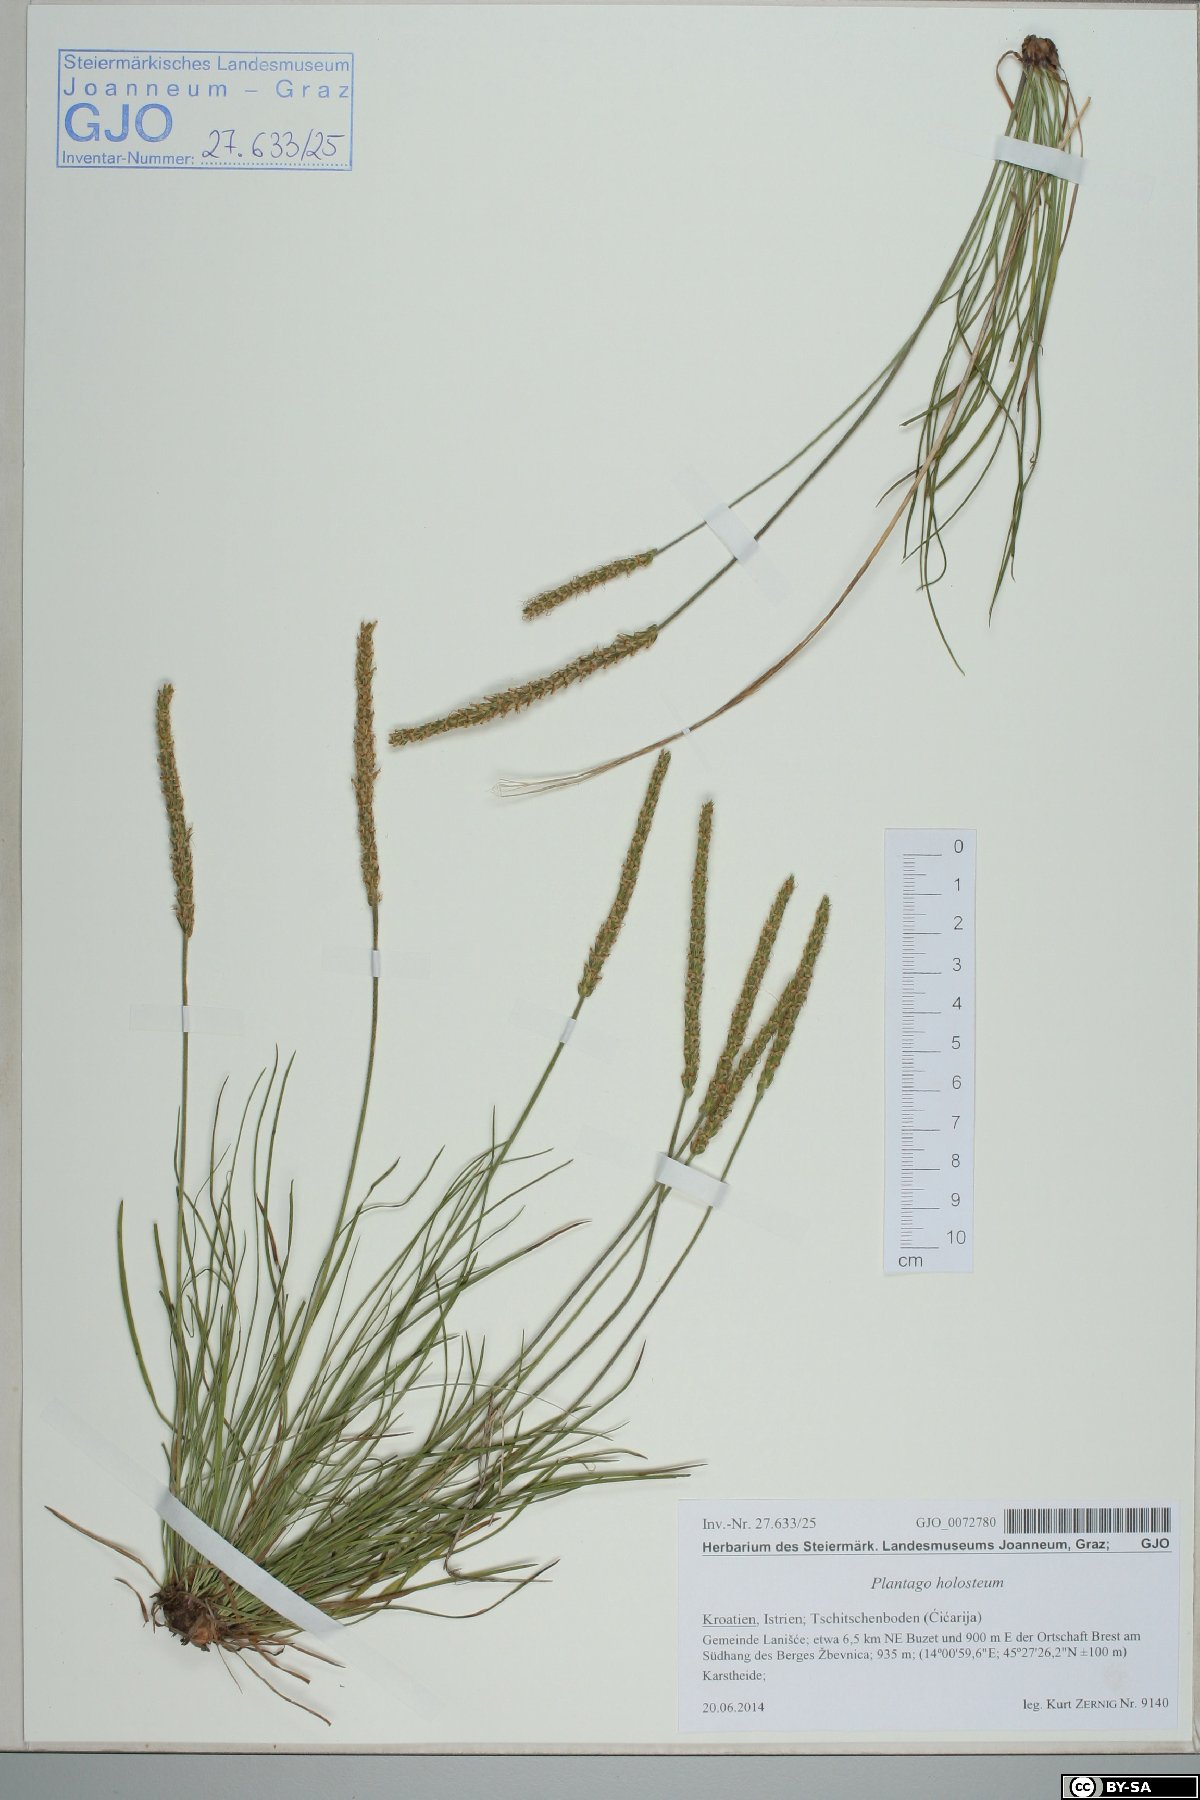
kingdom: Plantae
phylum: Tracheophyta
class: Magnoliopsida
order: Lamiales
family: Plantaginaceae
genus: Plantago
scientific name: Plantago subulata
